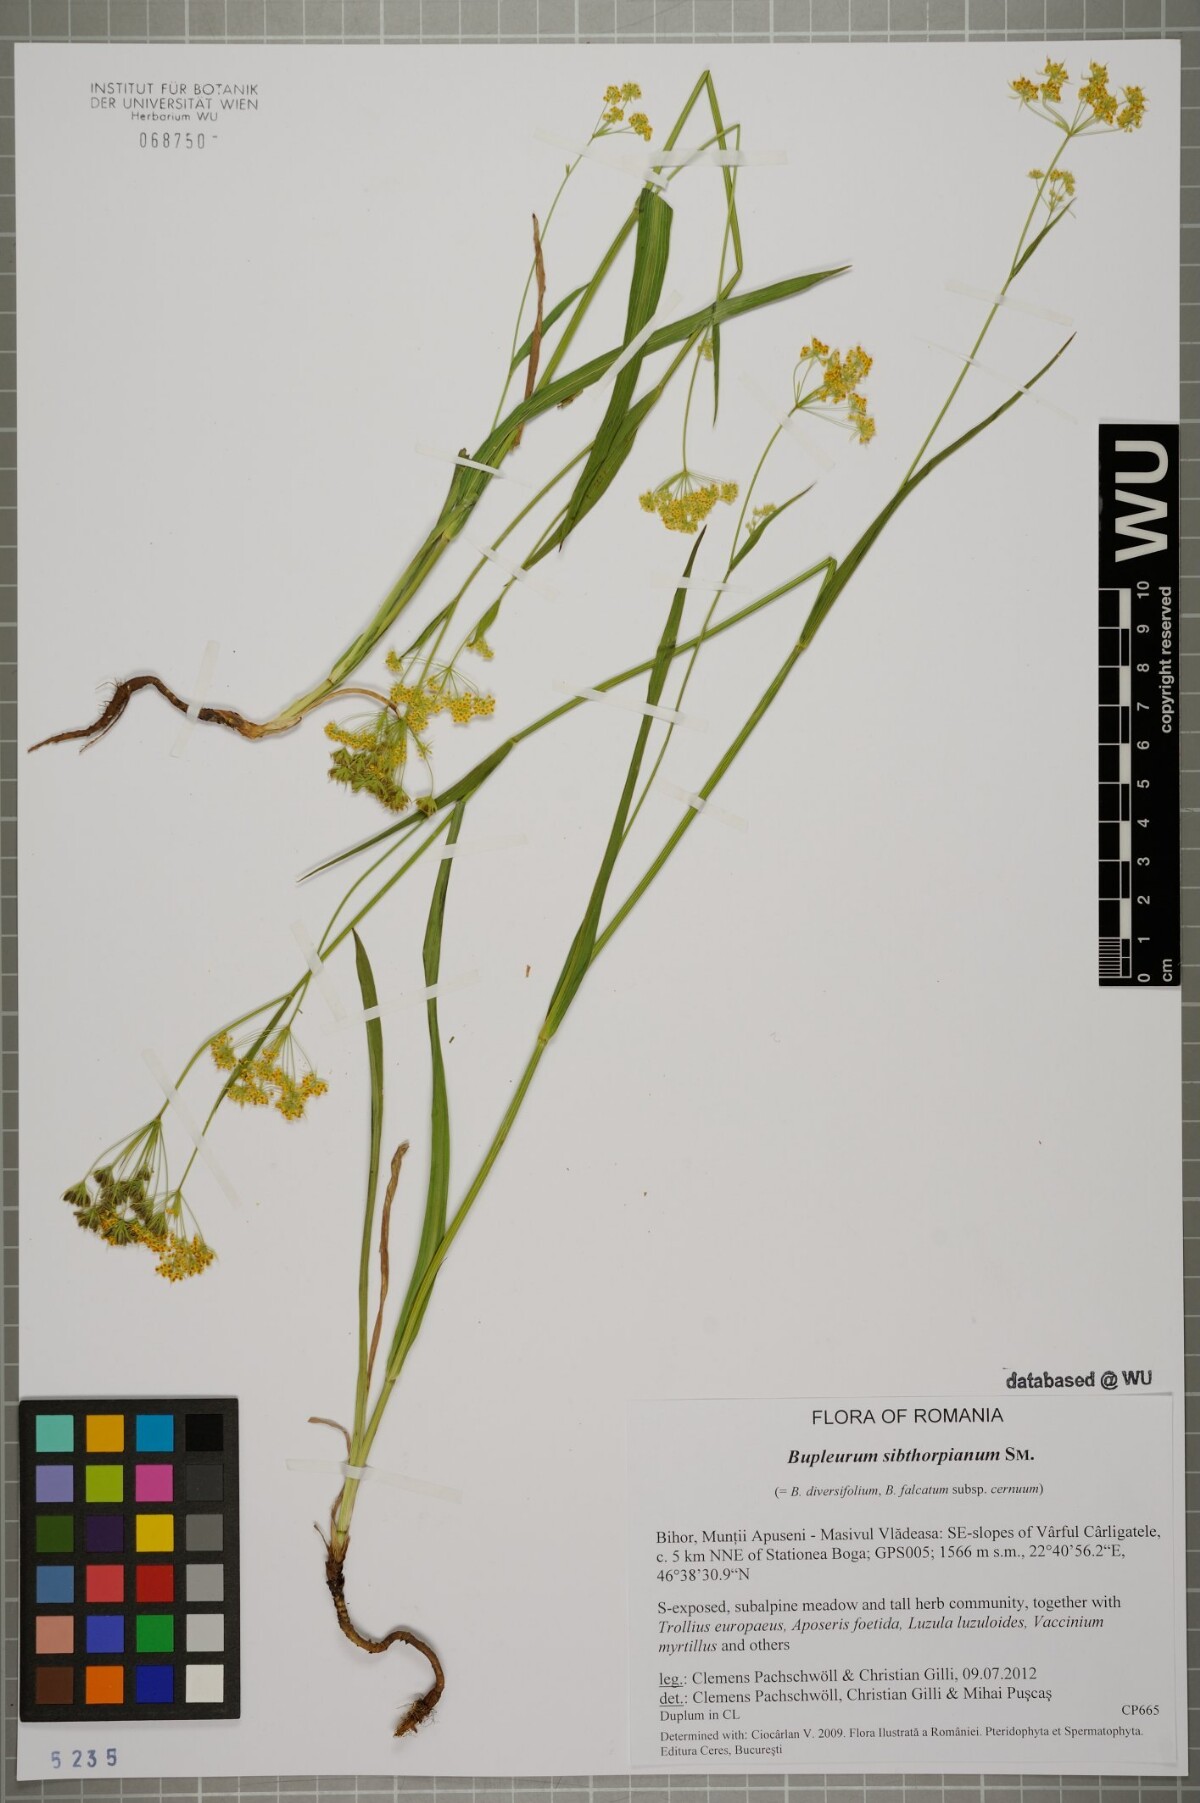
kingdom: Plantae
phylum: Tracheophyta
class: Magnoliopsida
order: Apiales
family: Apiaceae
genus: Bupleurum
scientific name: Bupleurum falcatum
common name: Sickle-leaved hare's-ear
